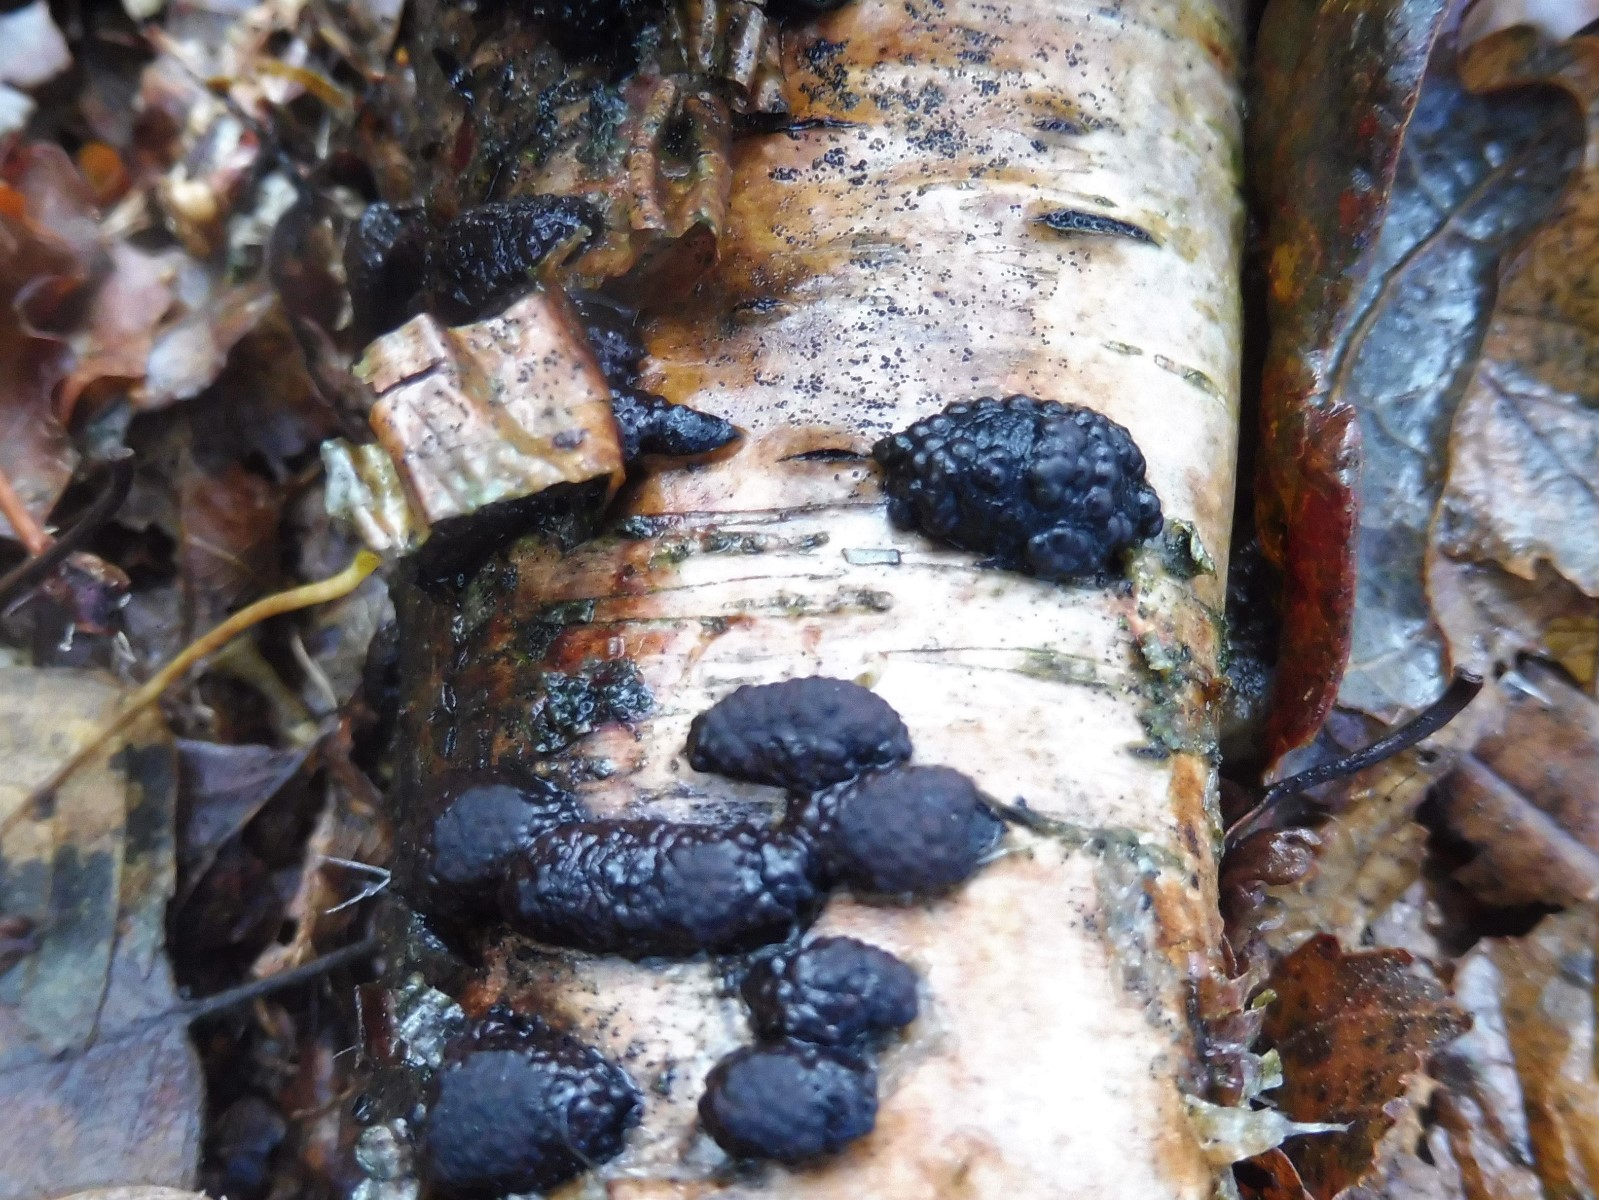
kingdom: Fungi
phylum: Ascomycota
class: Sordariomycetes
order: Xylariales
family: Hypoxylaceae
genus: Jackrogersella
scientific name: Jackrogersella multiformis
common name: foranderlig kulbær
